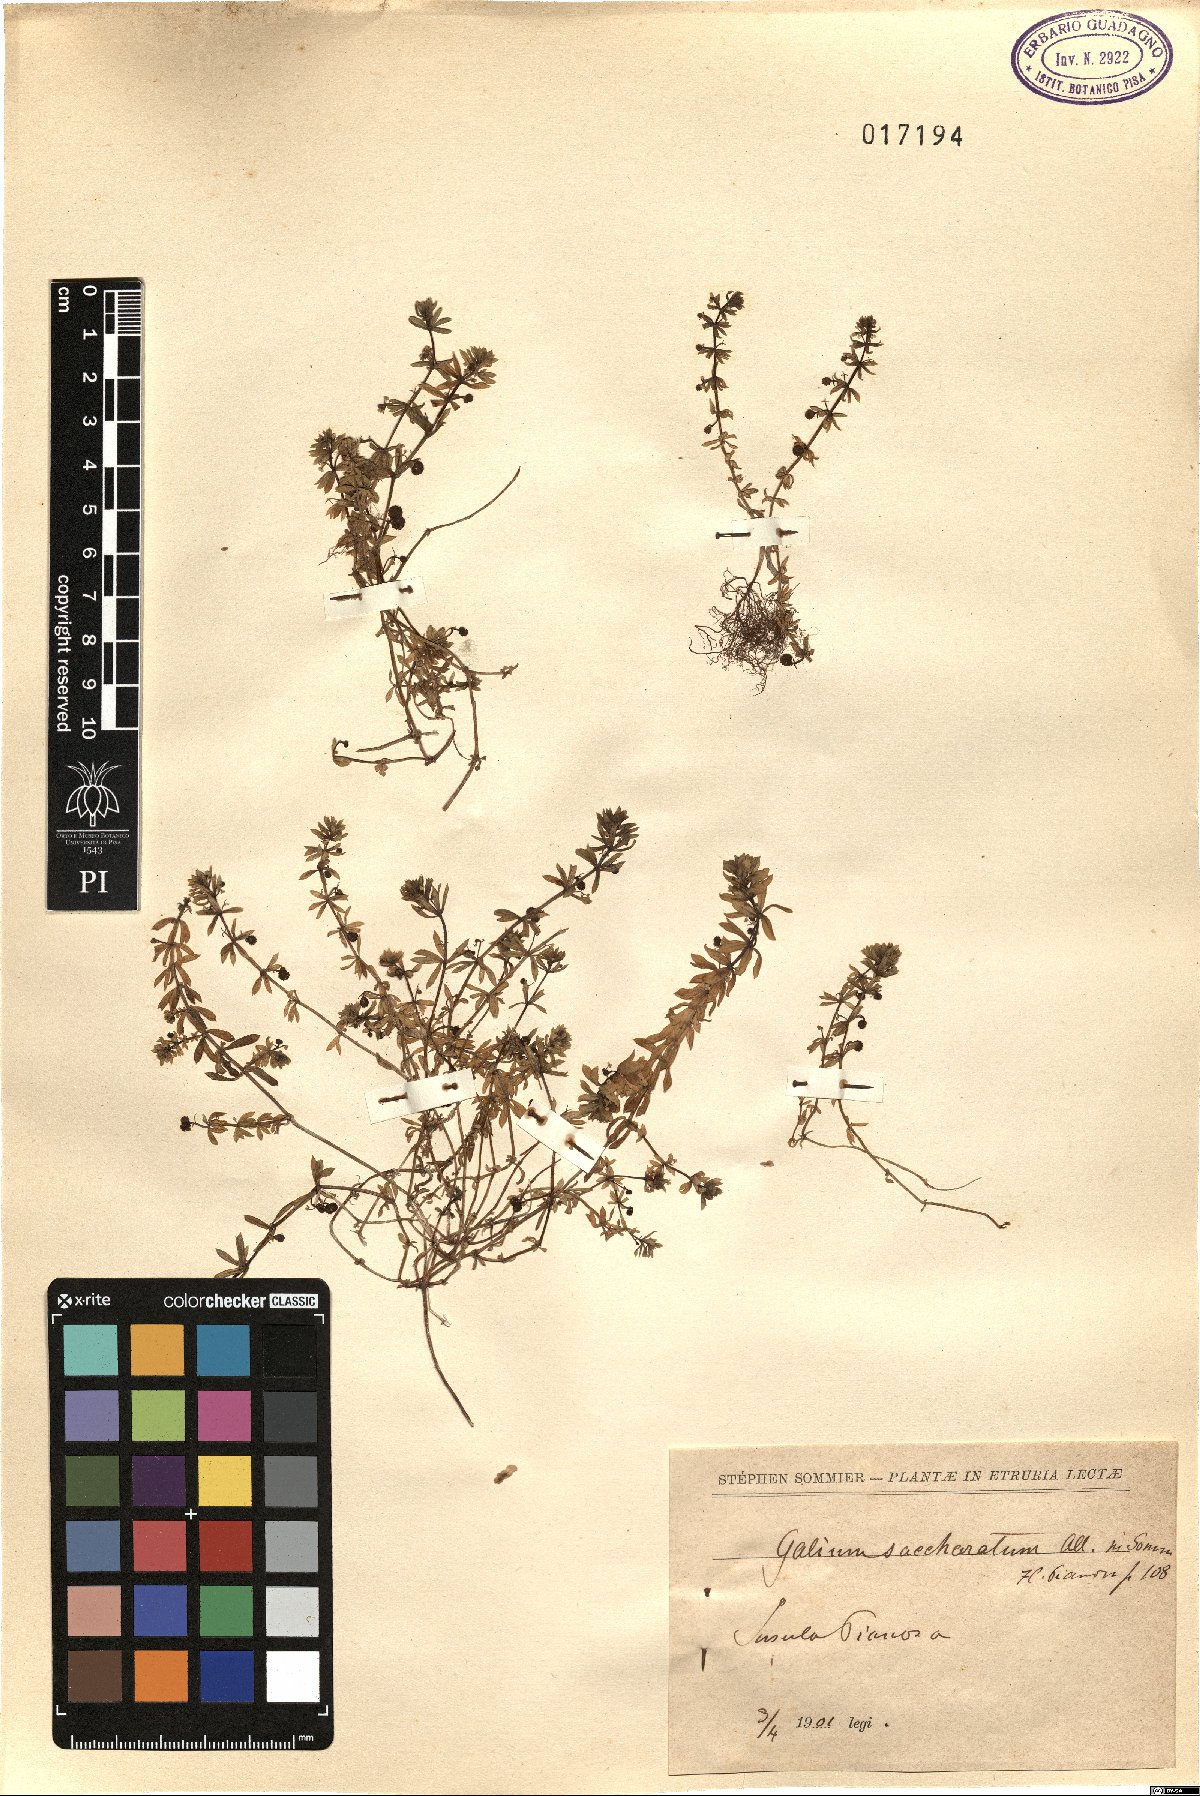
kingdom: Plantae
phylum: Tracheophyta
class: Magnoliopsida
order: Gentianales
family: Rubiaceae
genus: Galium
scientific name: Galium verrucosum
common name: Warty bedstraw
